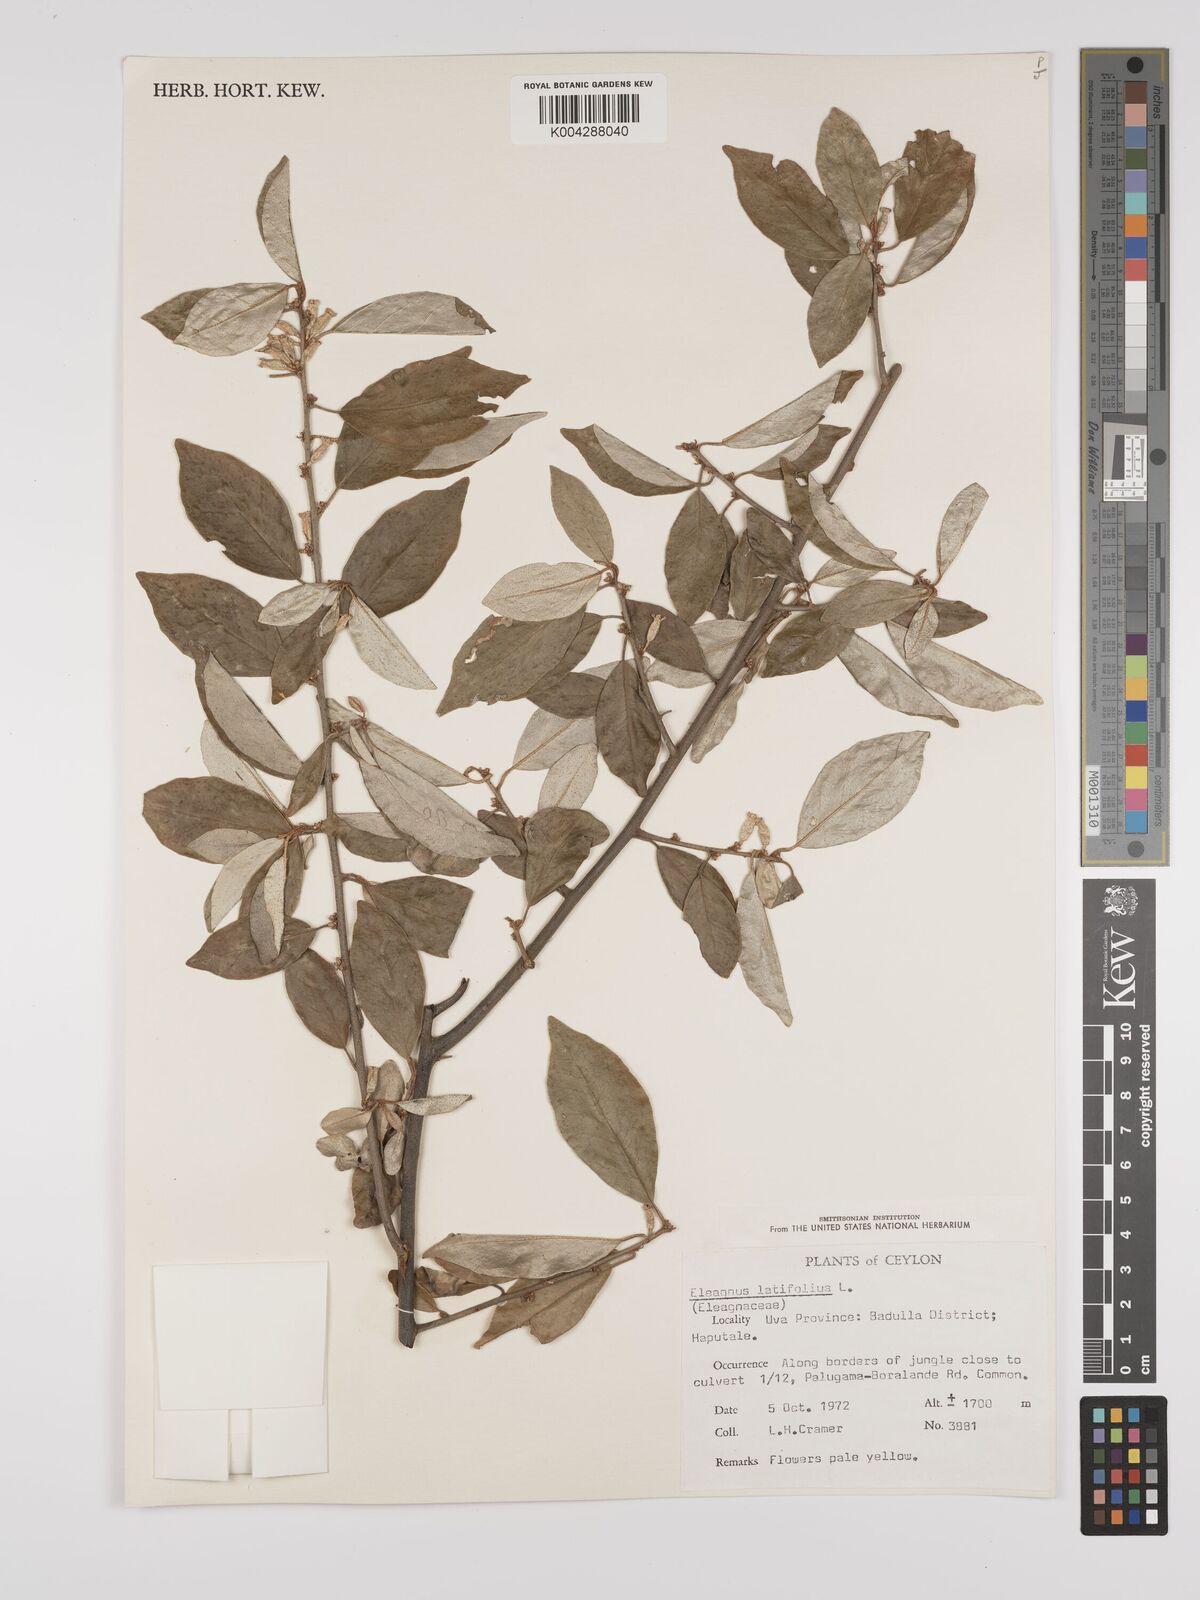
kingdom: Plantae
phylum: Tracheophyta
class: Magnoliopsida
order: Rosales
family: Elaeagnaceae
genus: Elaeagnus
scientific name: Elaeagnus latifolia
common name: Oleaster
